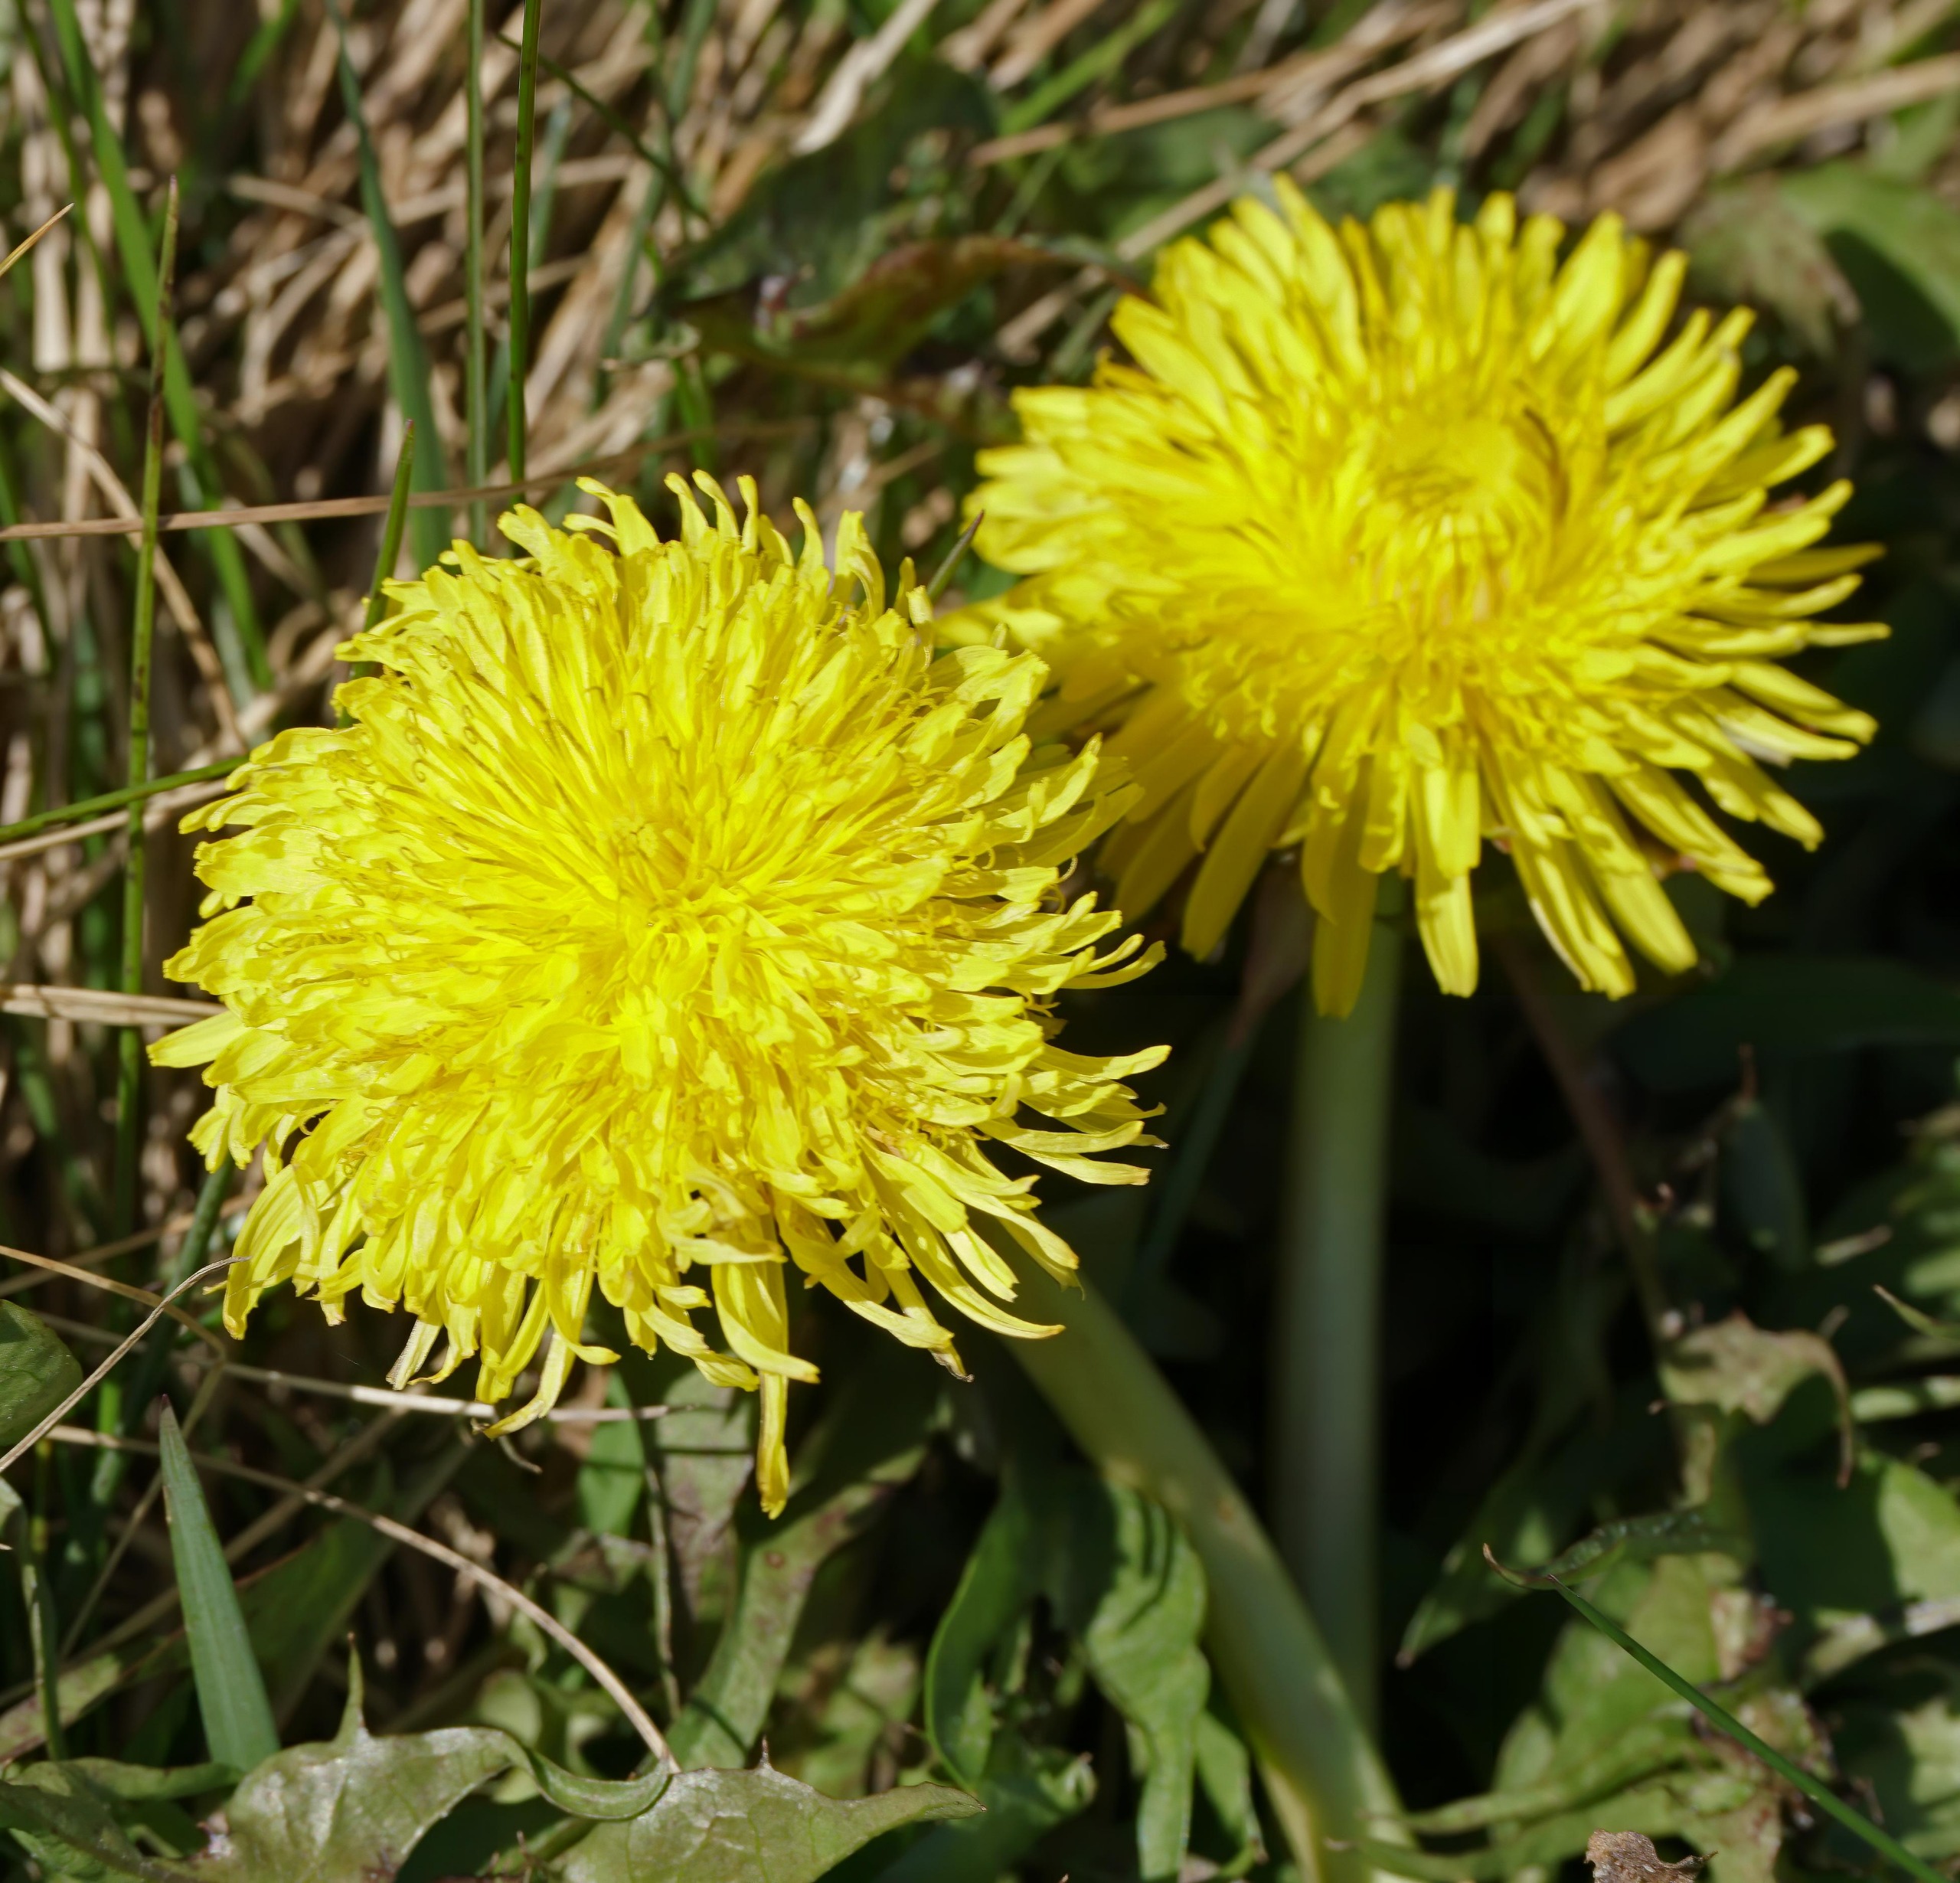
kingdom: Plantae
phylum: Tracheophyta
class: Magnoliopsida
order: Asterales
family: Asteraceae
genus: Taraxacum
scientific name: Taraxacum
